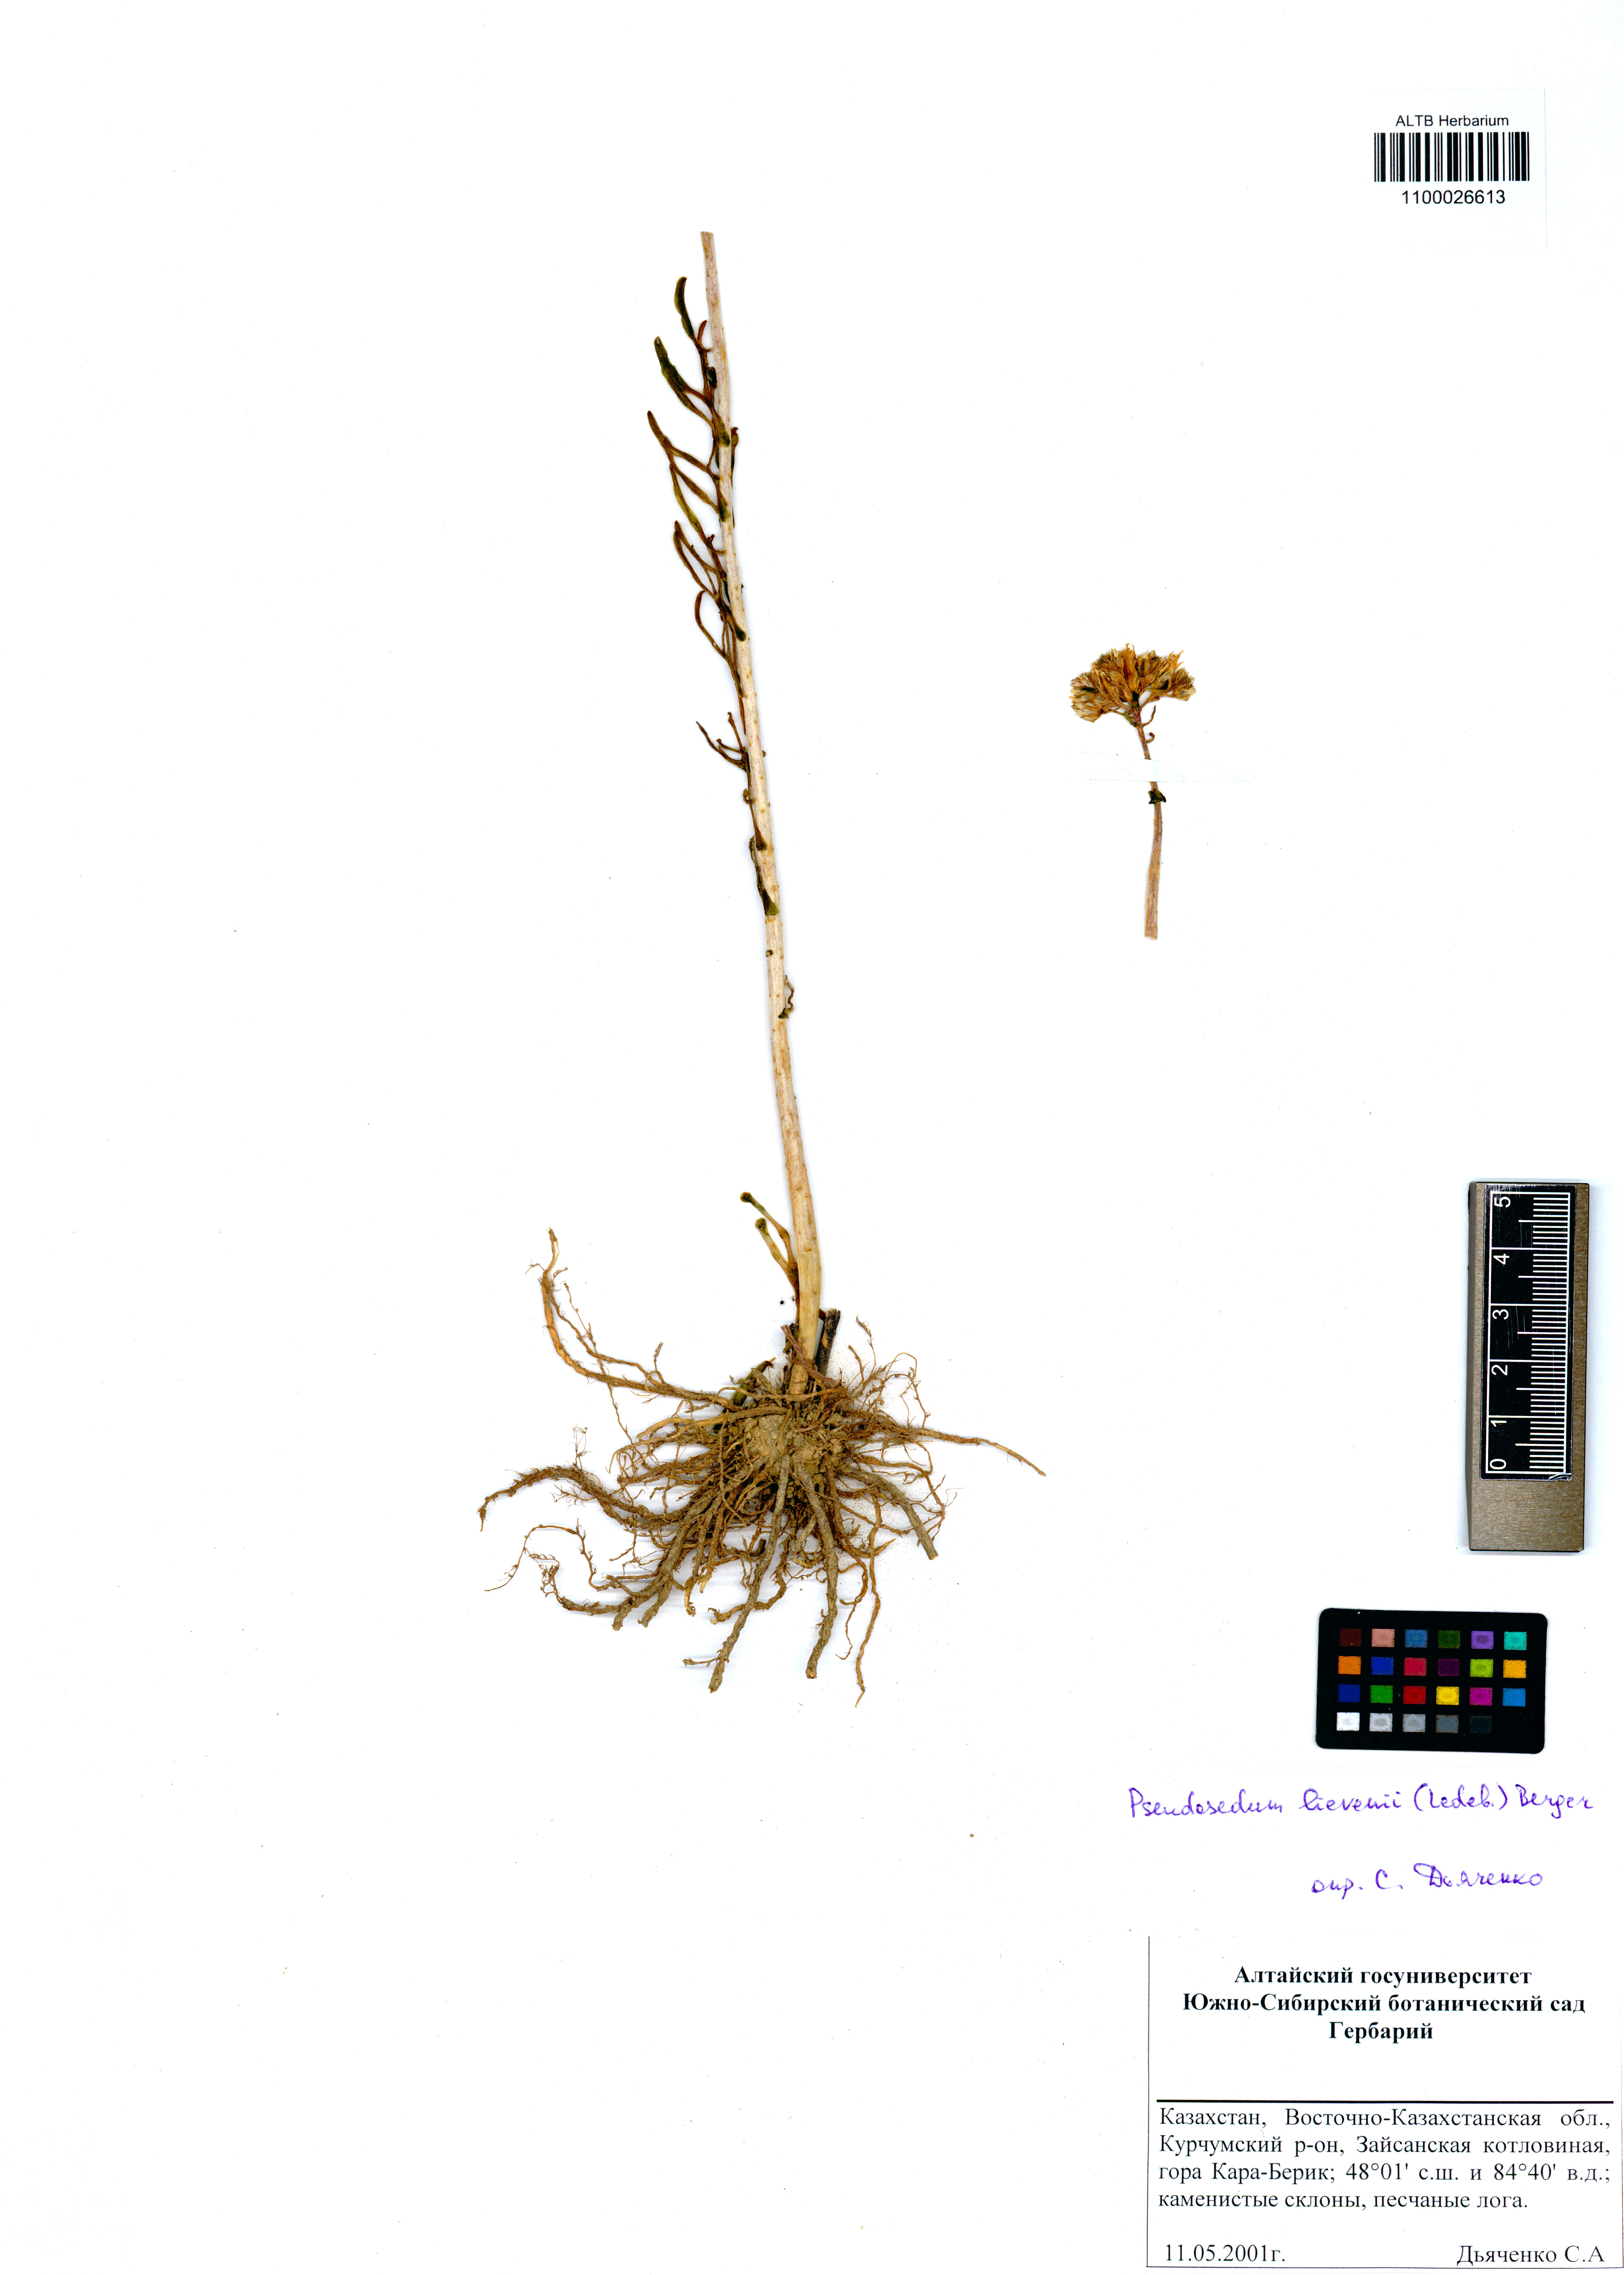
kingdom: Plantae
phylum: Tracheophyta
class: Magnoliopsida
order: Saxifragales
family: Crassulaceae
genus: Pseudosedum
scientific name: Pseudosedum lievenii
